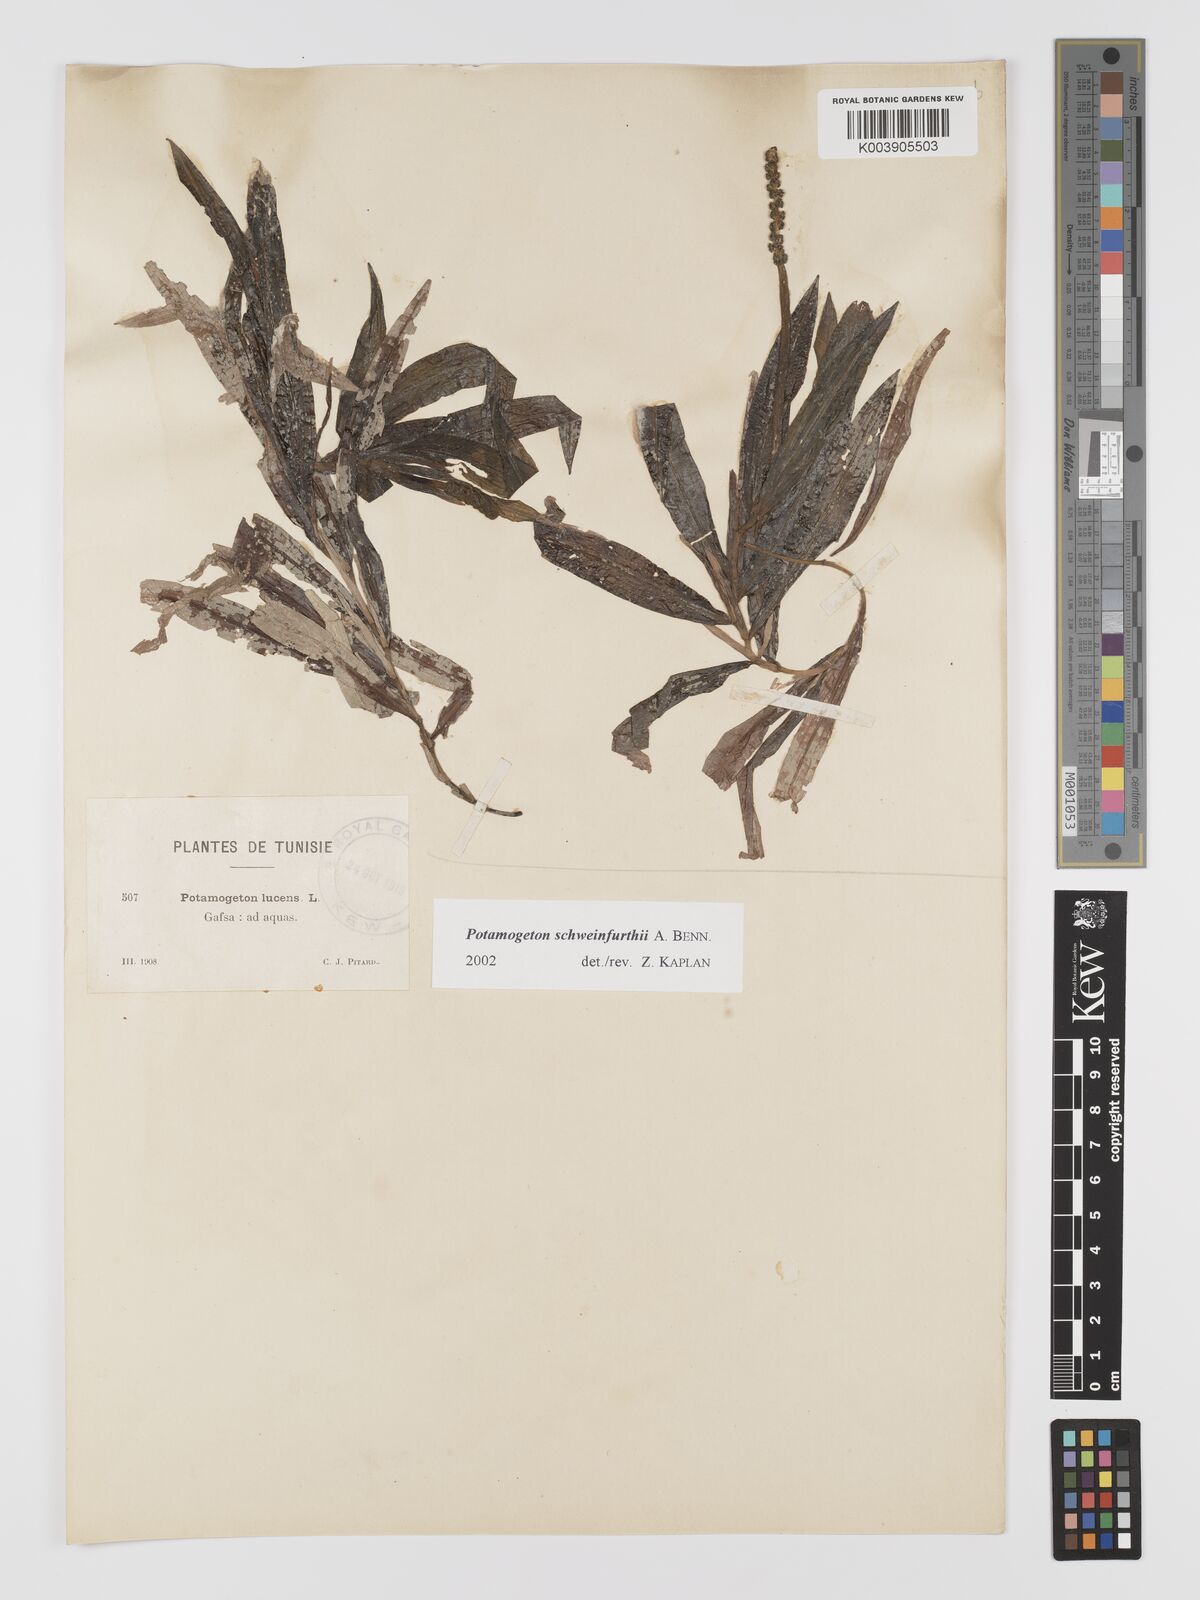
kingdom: Plantae
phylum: Tracheophyta
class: Liliopsida
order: Alismatales
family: Potamogetonaceae
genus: Potamogeton
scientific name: Potamogeton schweinfurthii
